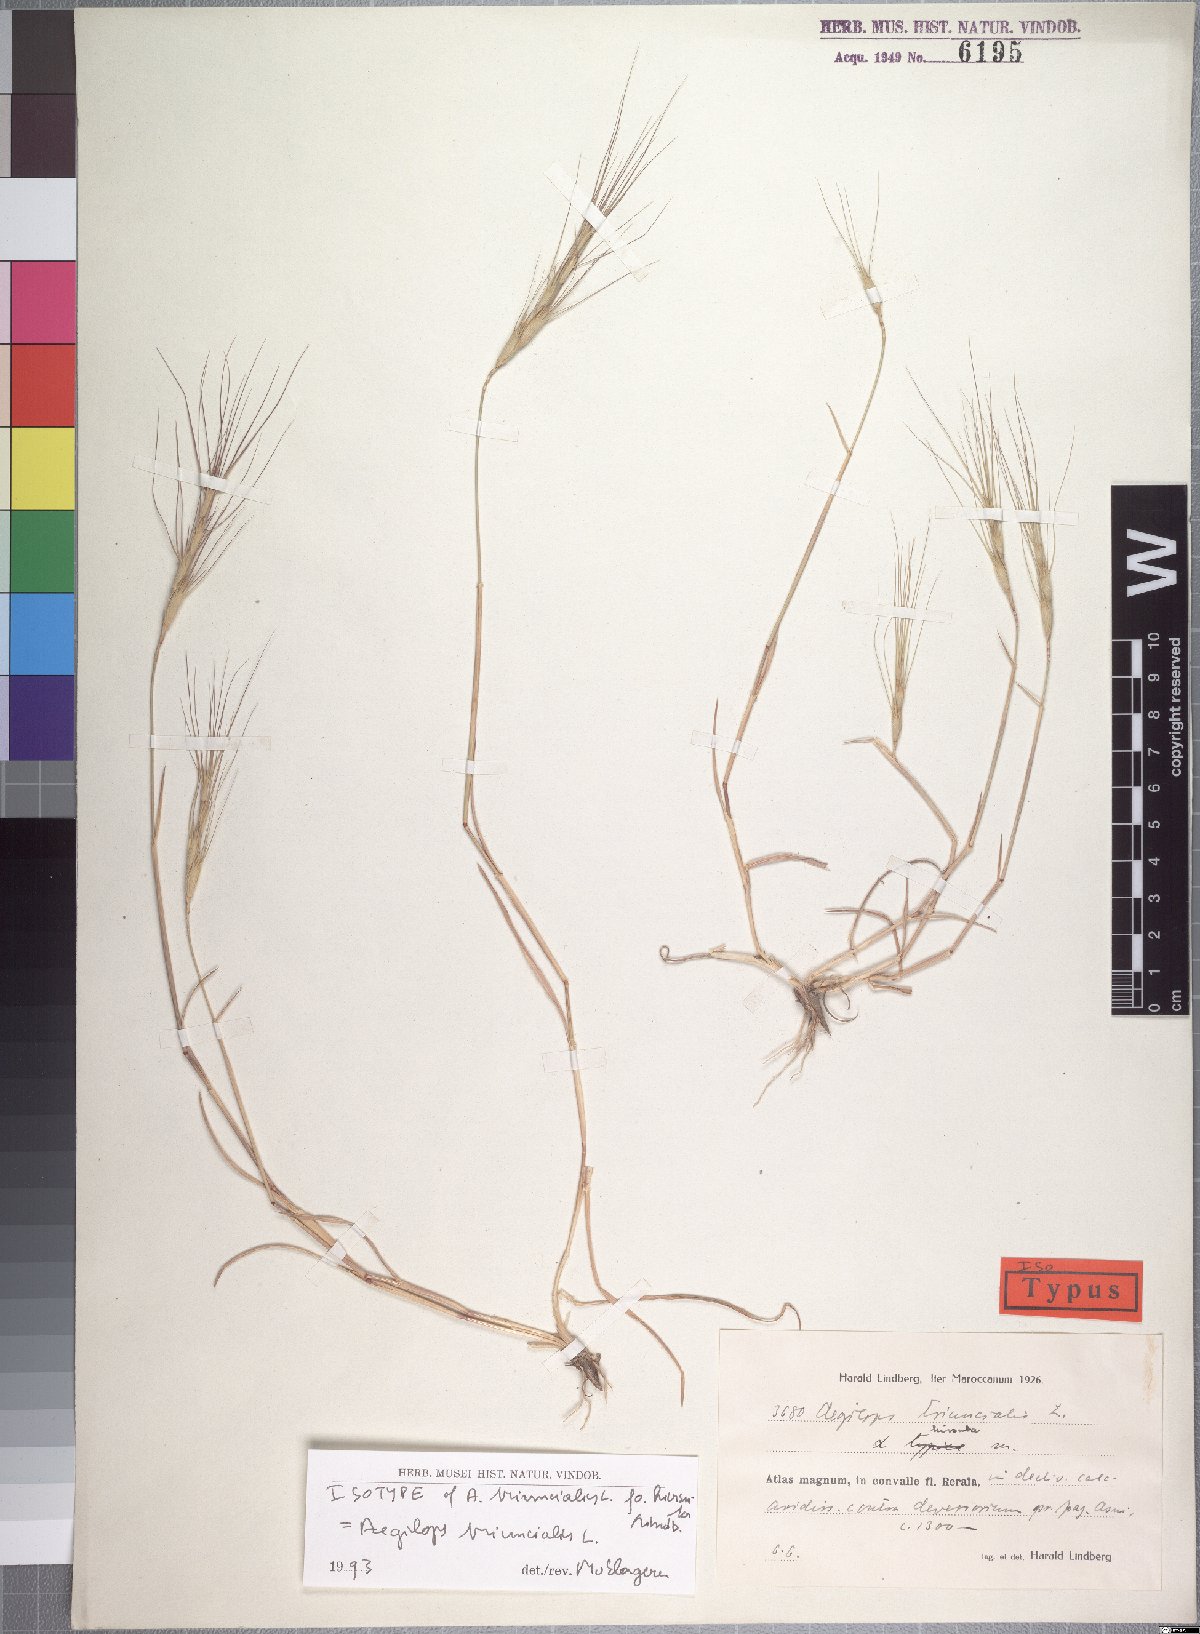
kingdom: Plantae
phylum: Tracheophyta
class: Liliopsida
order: Poales
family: Poaceae
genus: Aegilops
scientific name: Aegilops triuncialis
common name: Barb goat grass
